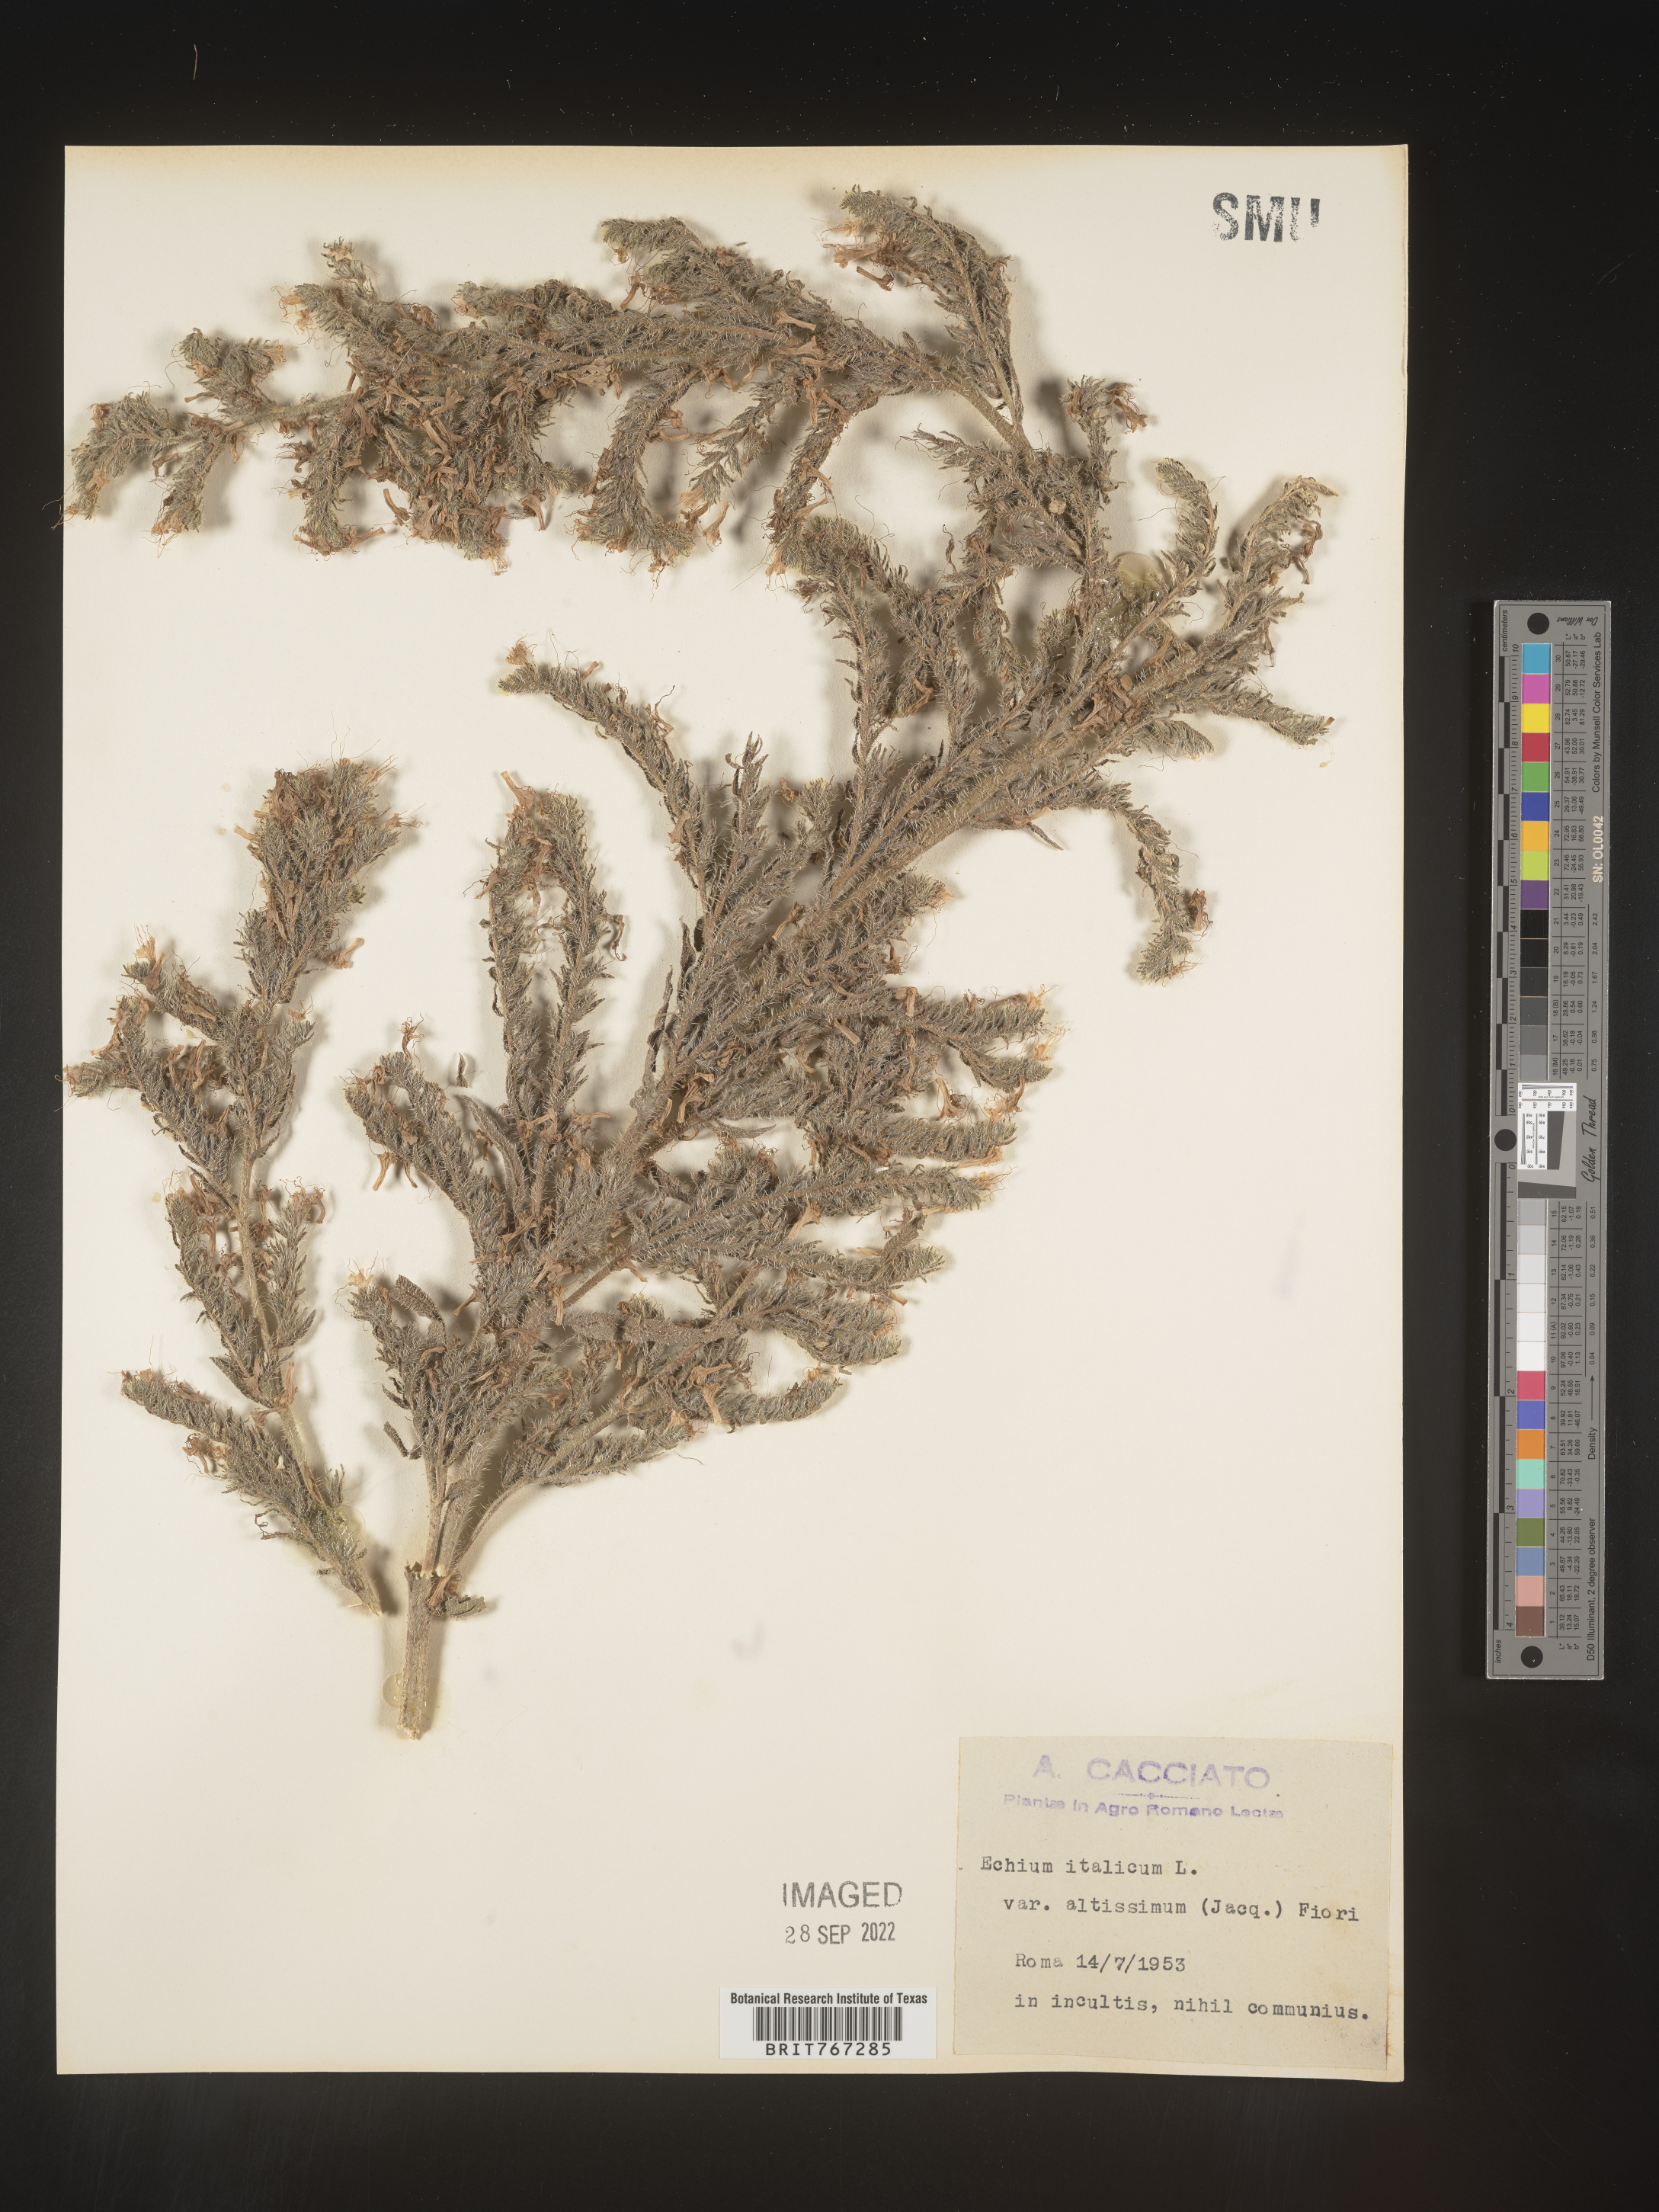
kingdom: Plantae
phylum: Tracheophyta
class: Magnoliopsida
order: Boraginales
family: Boraginaceae
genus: Echium
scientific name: Echium
